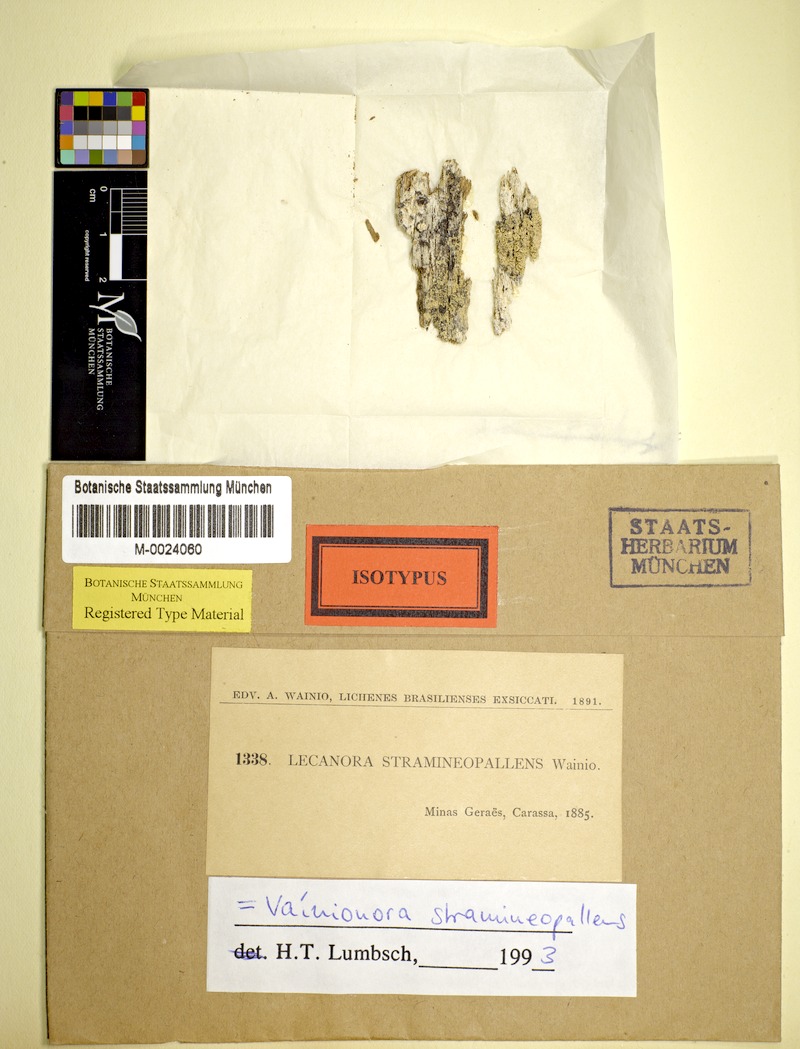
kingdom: Fungi
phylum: Ascomycota
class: Lecanoromycetes
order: Lecanorales
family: Lecanoraceae
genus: Vainionora
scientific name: Vainionora stramineopallens
